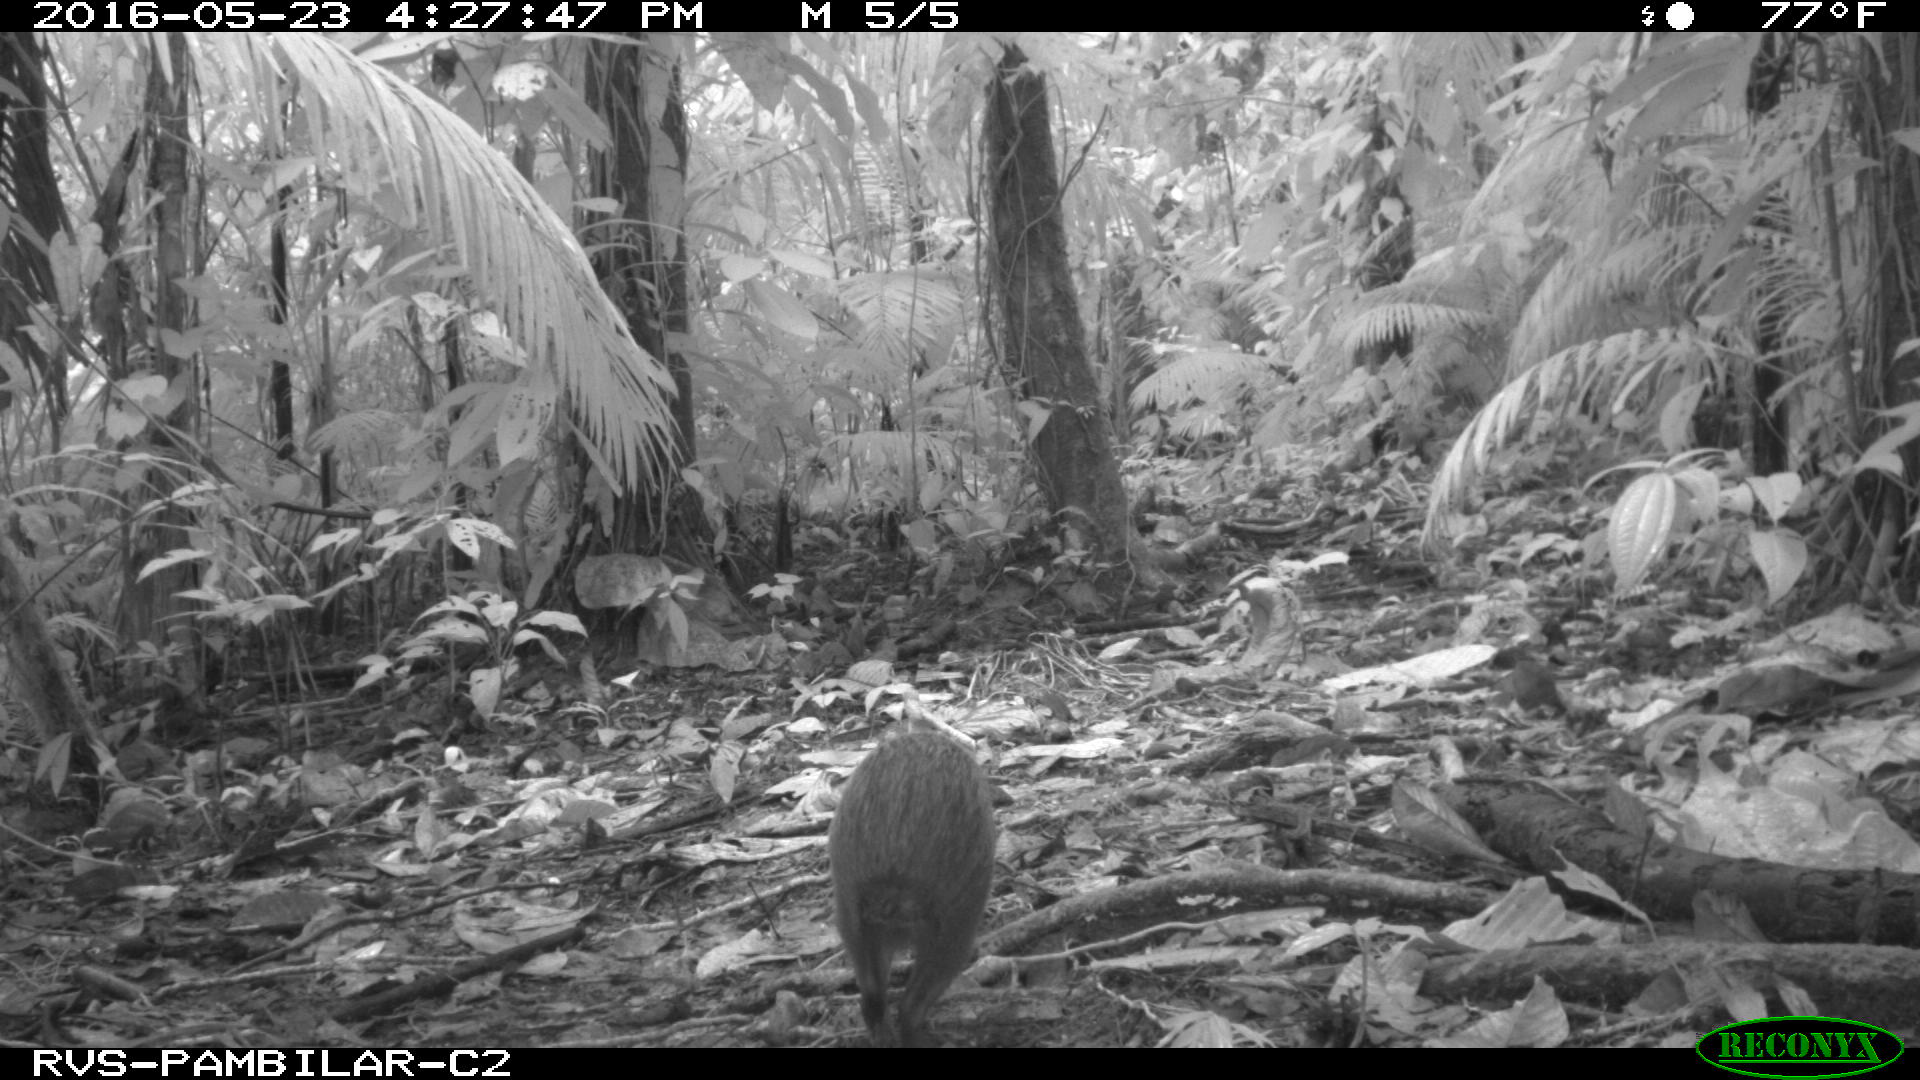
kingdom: Animalia
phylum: Chordata
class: Mammalia
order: Rodentia
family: Dasyproctidae
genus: Dasyprocta
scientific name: Dasyprocta punctata
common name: Central american agouti
